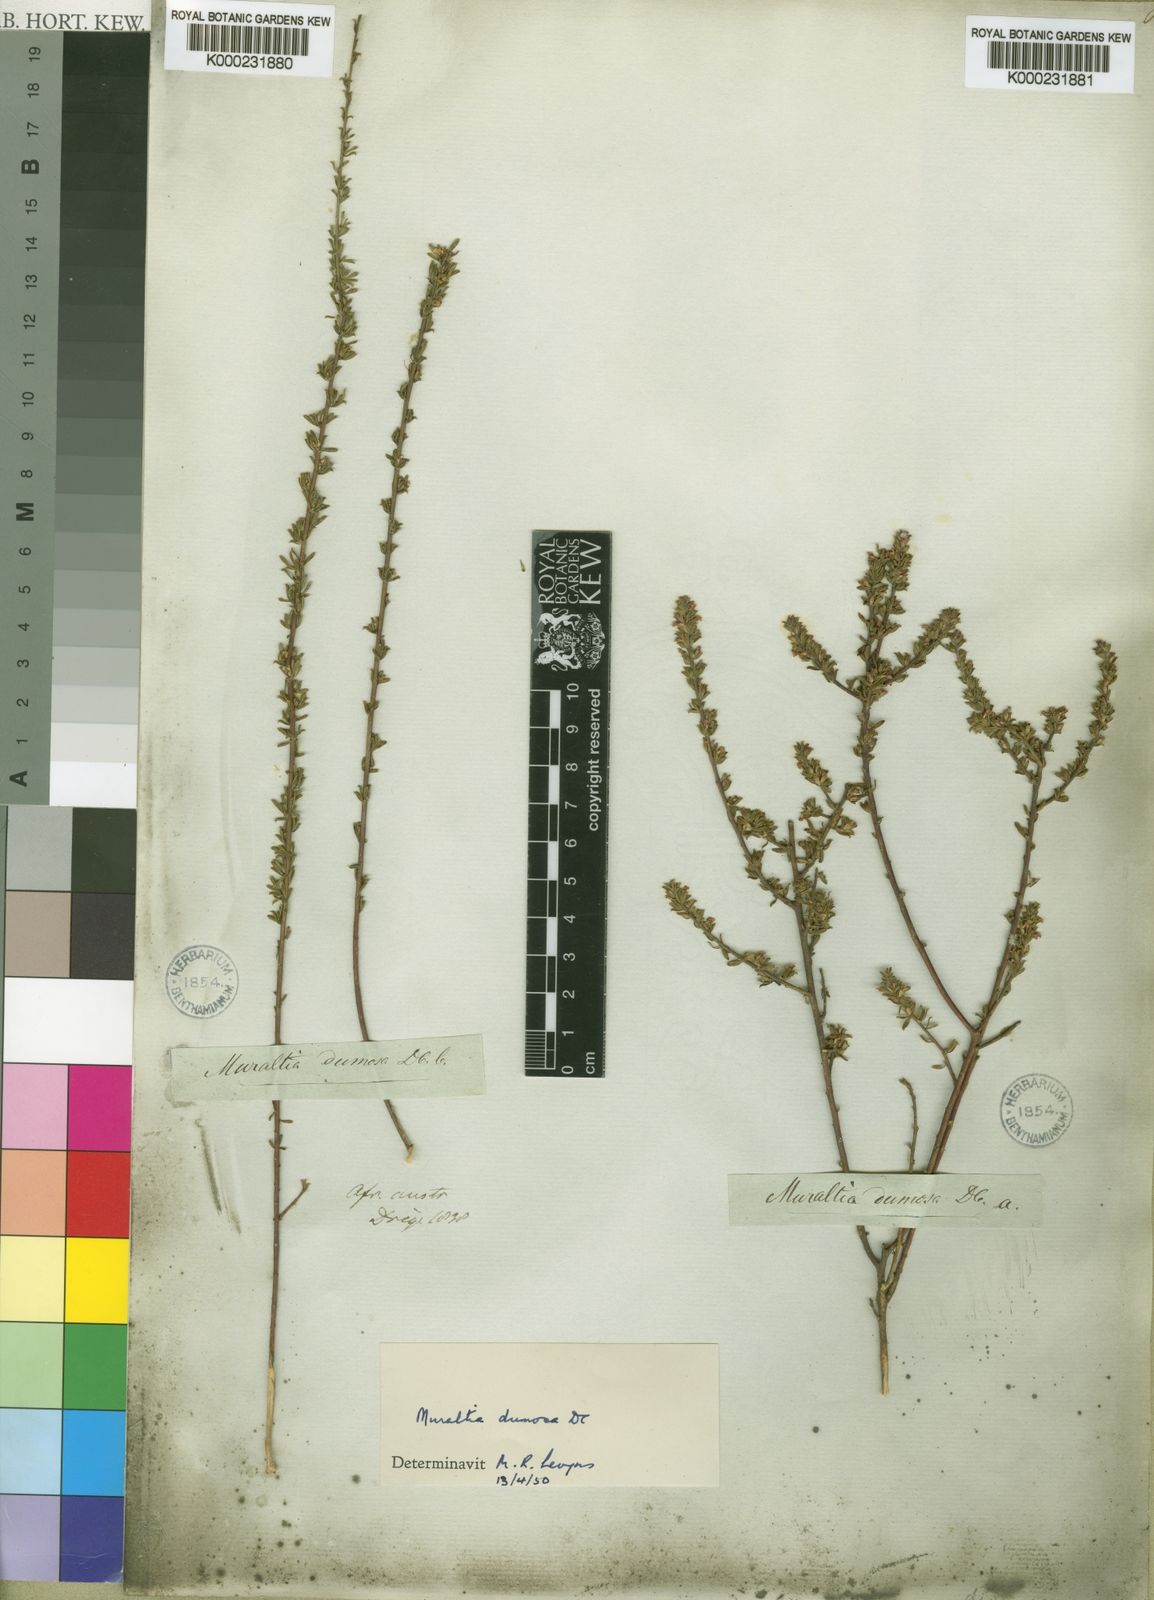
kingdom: Plantae
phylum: Tracheophyta
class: Magnoliopsida
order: Fabales
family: Polygalaceae
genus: Muraltia
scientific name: Muraltia dumosa
